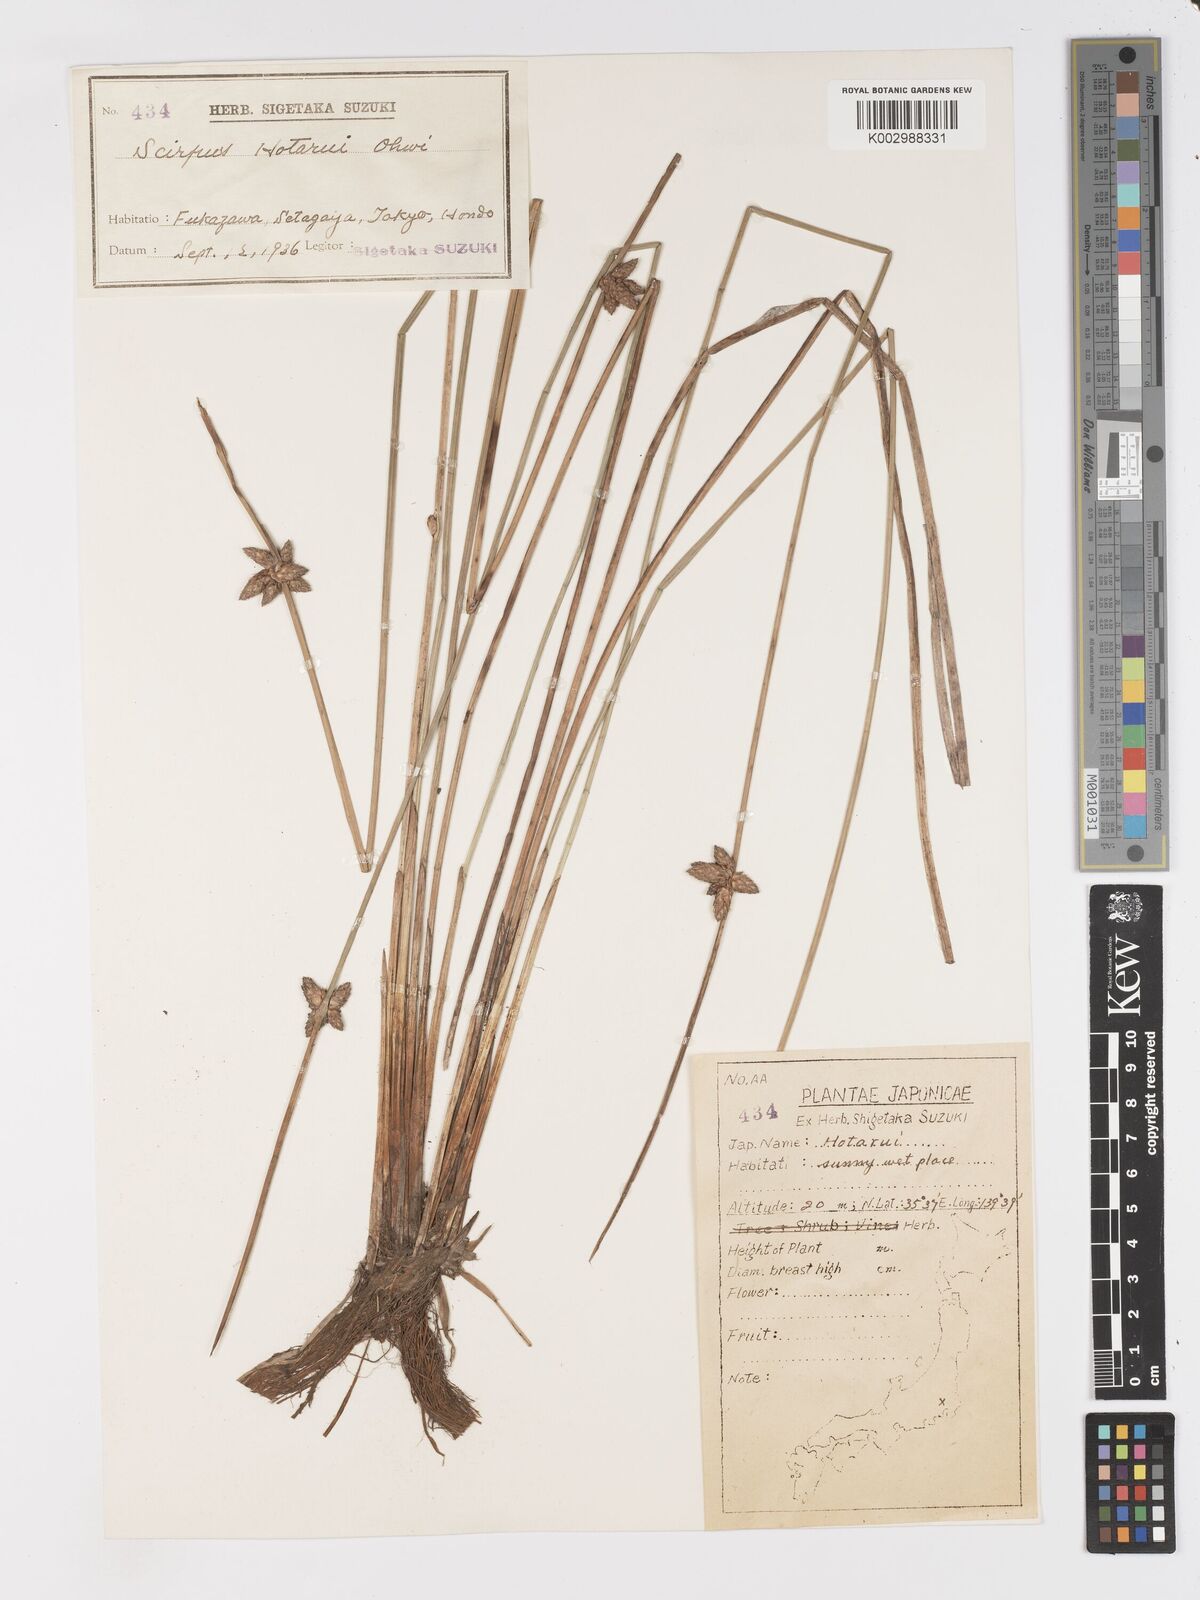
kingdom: Plantae
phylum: Tracheophyta
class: Liliopsida
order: Poales
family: Cyperaceae
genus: Schoenoplectiella
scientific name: Schoenoplectiella hotarui
